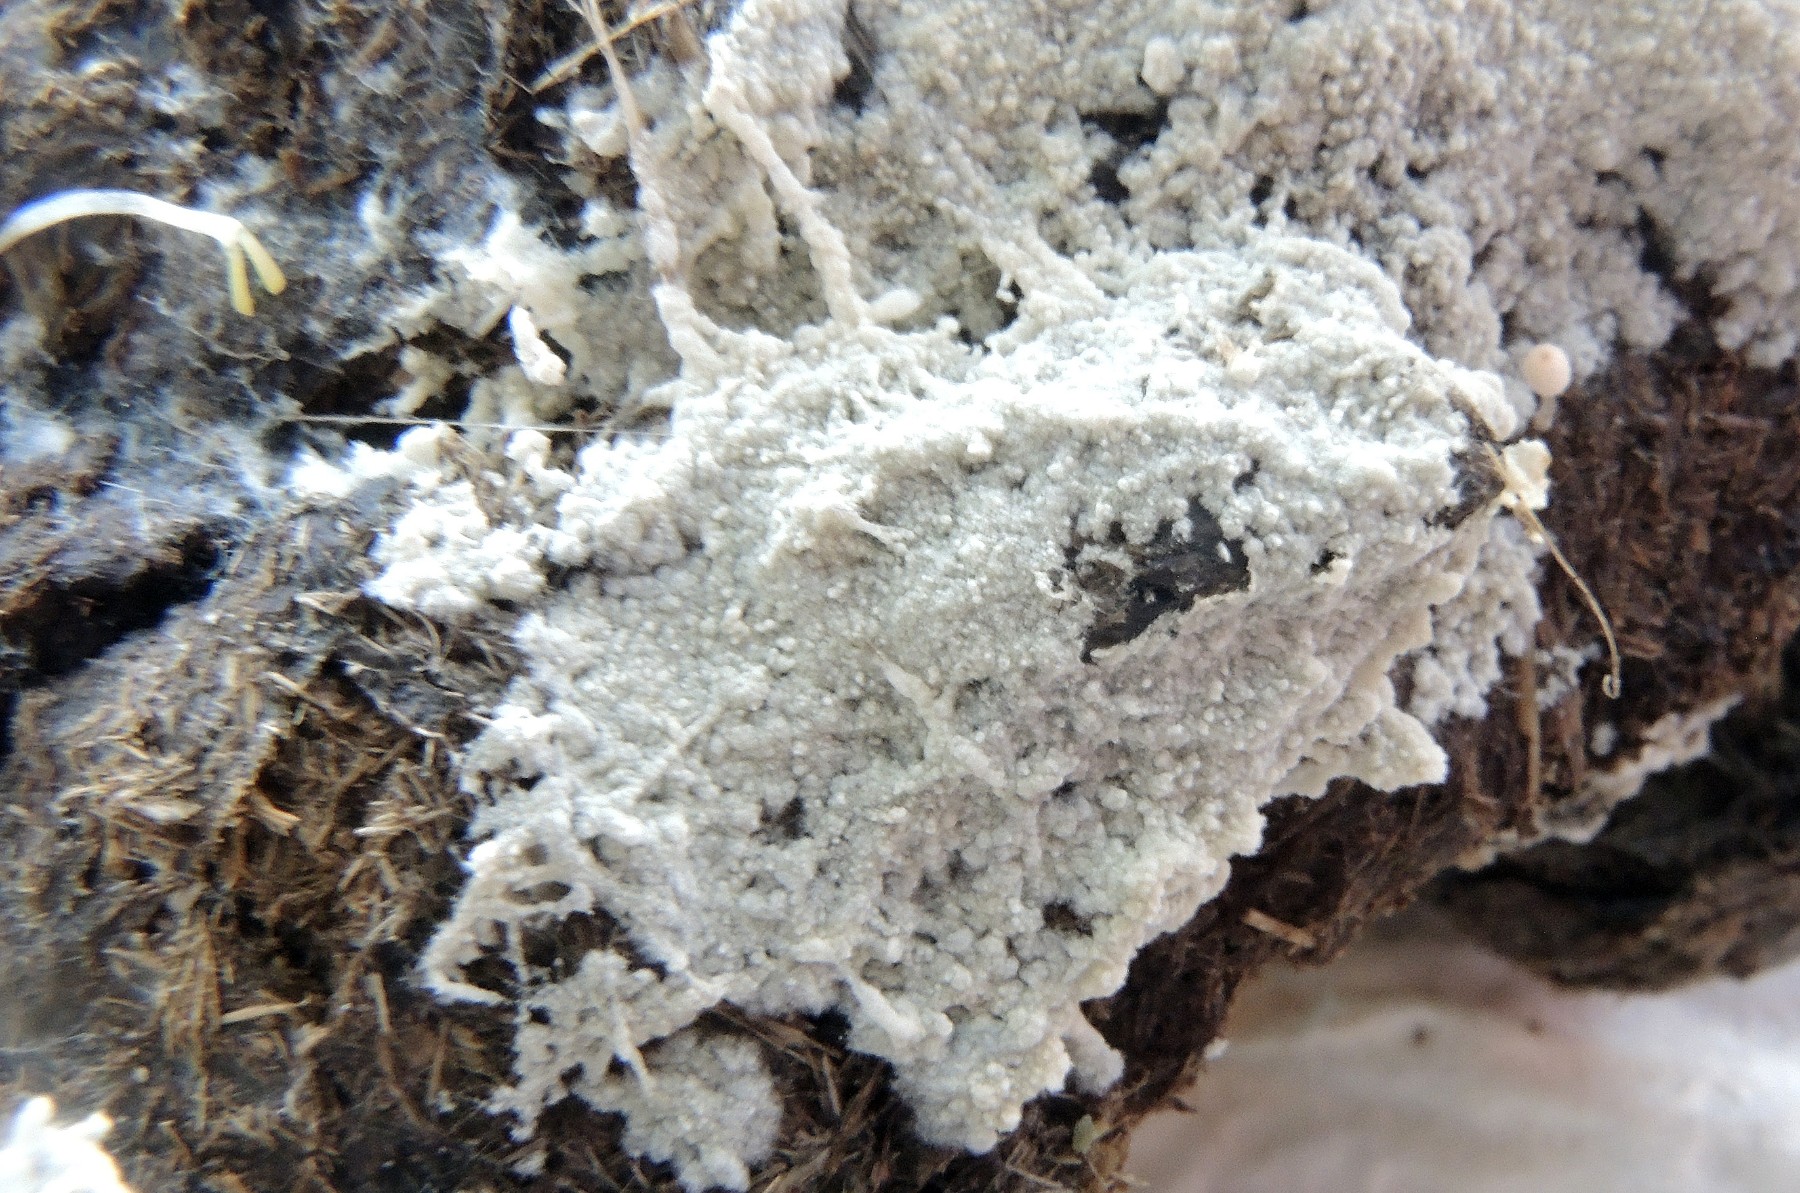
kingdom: Fungi
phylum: Basidiomycota
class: Agaricomycetes
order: Agaricales
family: Stephanosporaceae
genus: Cristinia
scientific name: Cristinia coprophila
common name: gødnings-citrushinde
